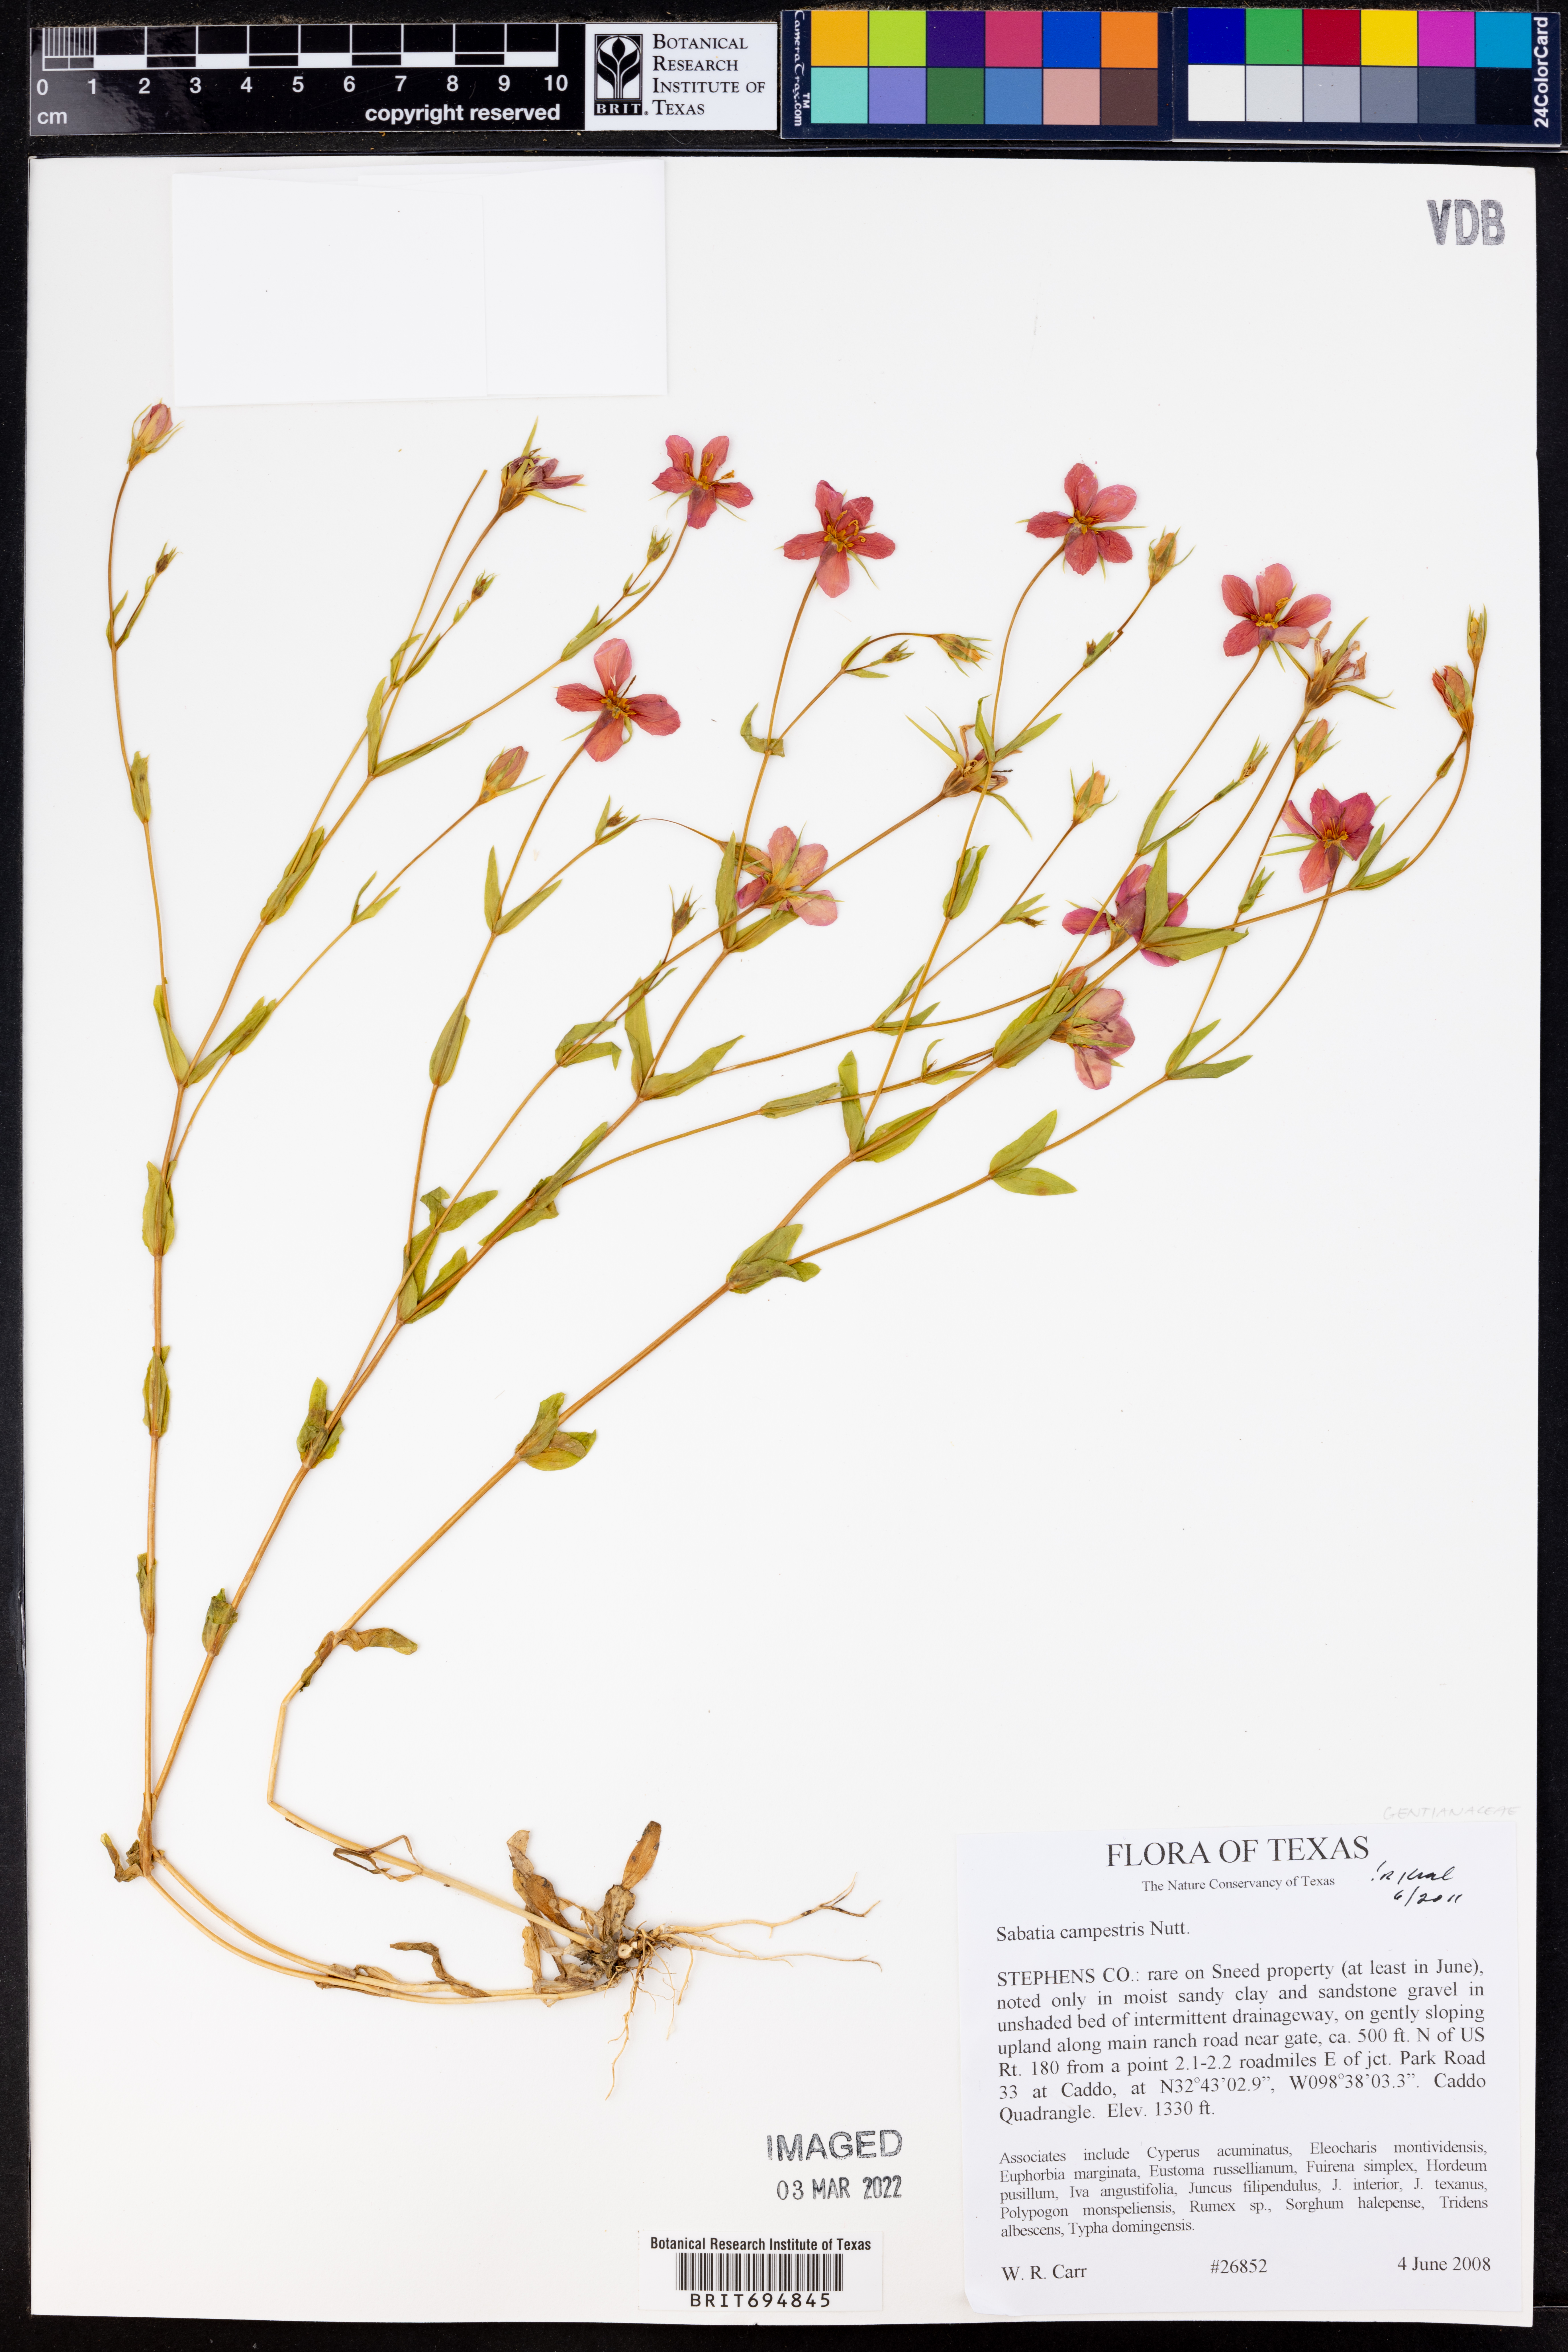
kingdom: Plantae
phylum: Tracheophyta
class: Magnoliopsida
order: Gentianales
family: Gentianaceae
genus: Sabatia
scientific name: Sabatia campestris
